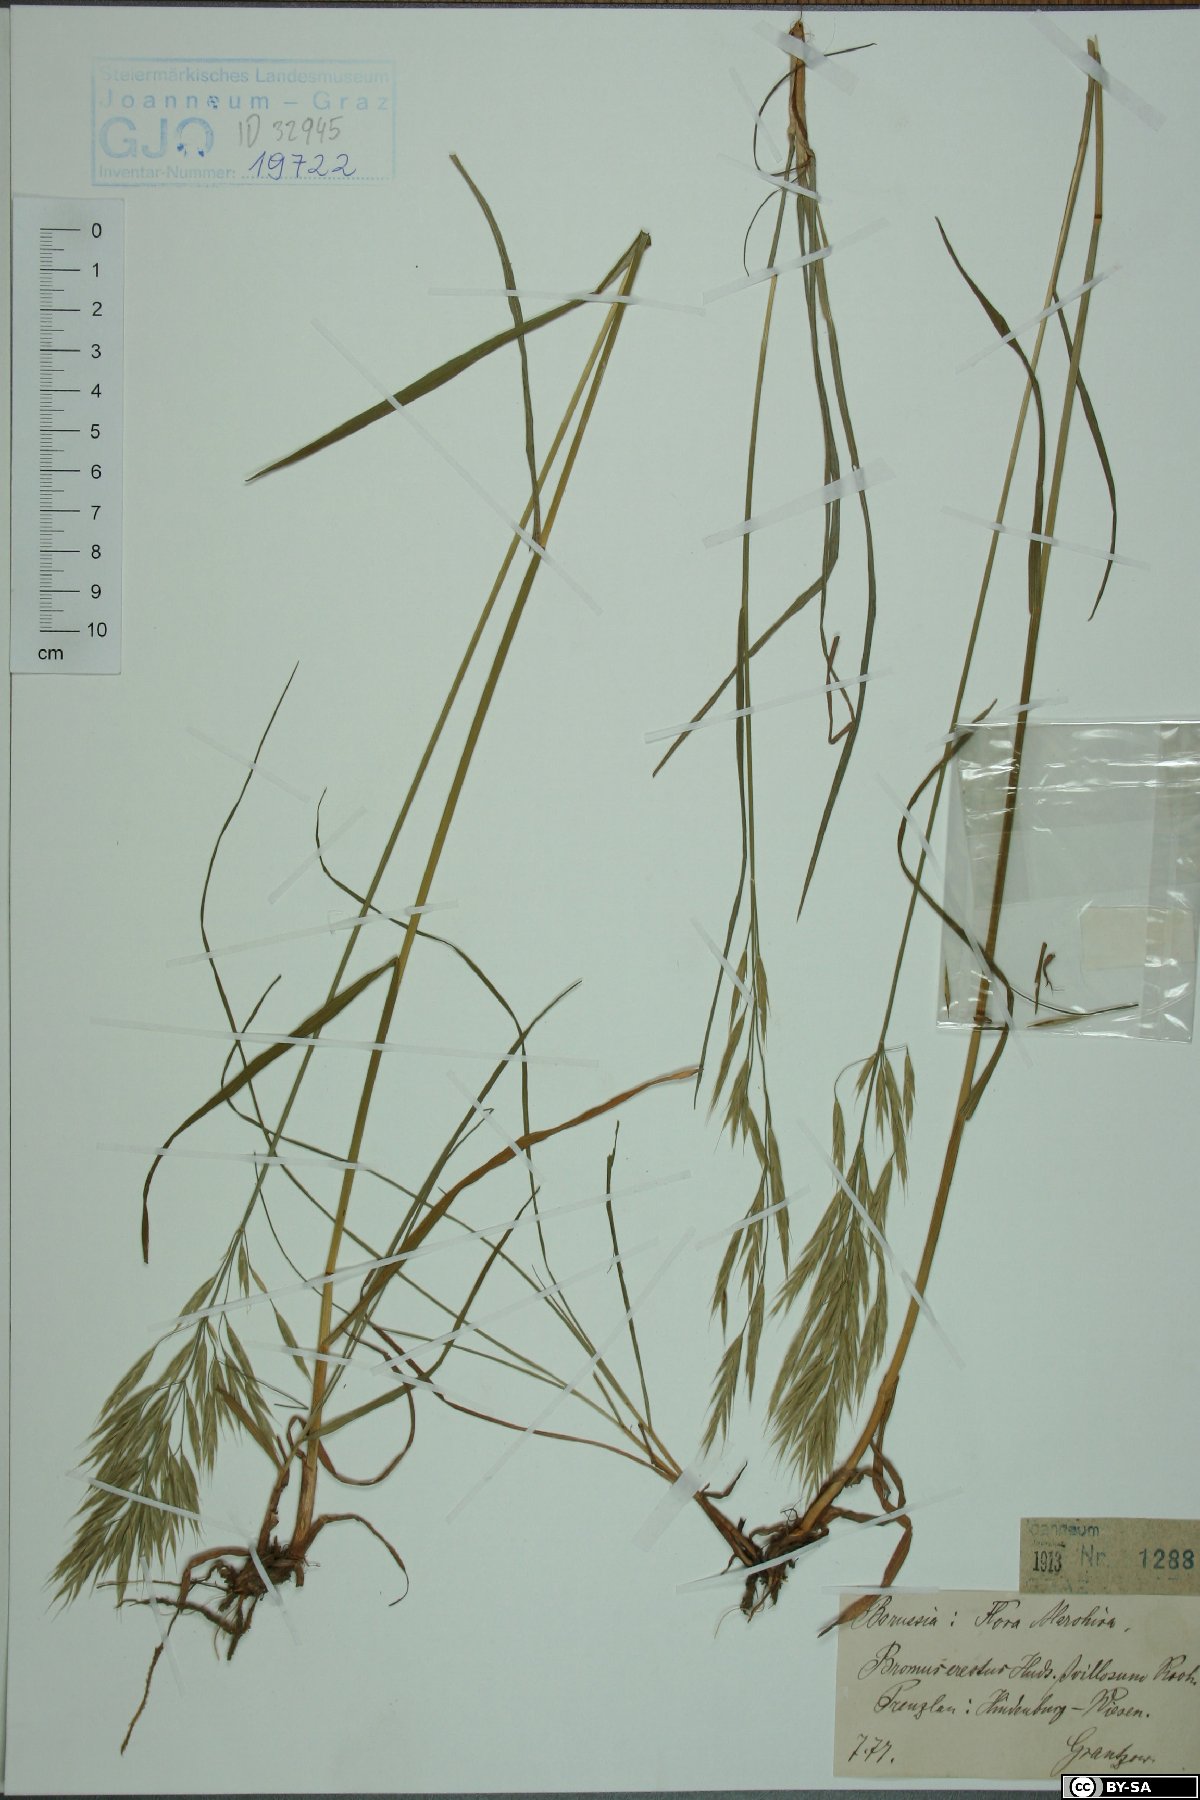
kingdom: Plantae
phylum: Tracheophyta
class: Liliopsida
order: Poales
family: Poaceae
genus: Bromus
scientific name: Bromus erectus
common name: Erect brome
